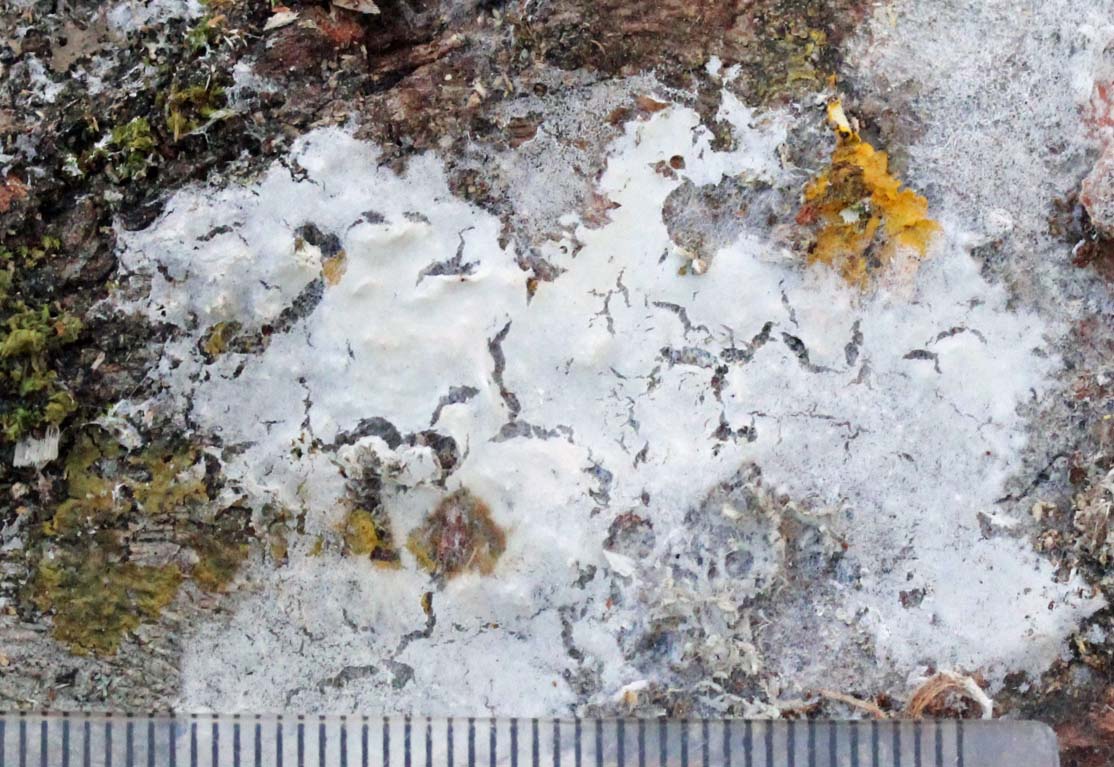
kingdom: Fungi
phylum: Basidiomycota
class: Agaricomycetes
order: Atheliales
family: Atheliaceae
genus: Athelia
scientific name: Athelia epiphylla
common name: almindelig barkhinde
